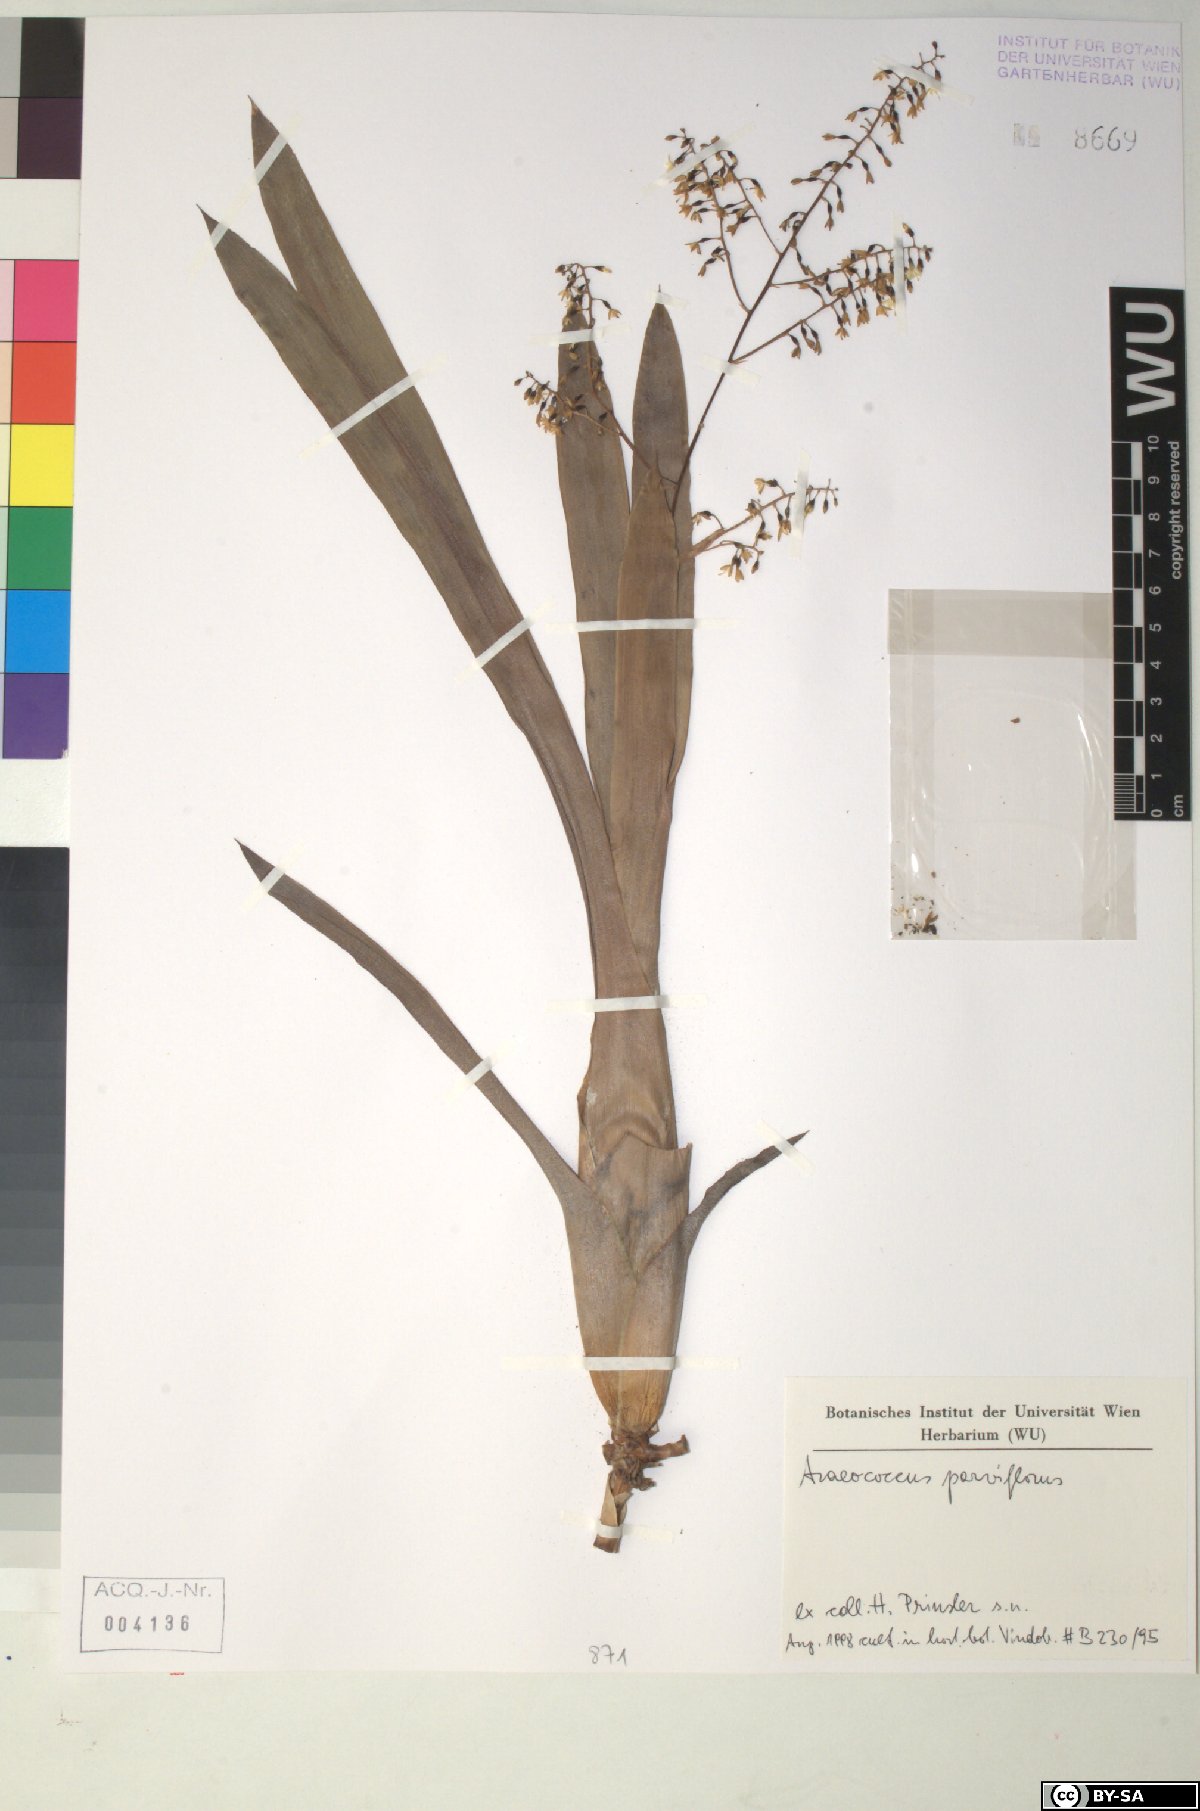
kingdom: Plantae
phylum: Tracheophyta
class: Liliopsida
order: Poales
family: Bromeliaceae
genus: Pseudaraeococcus
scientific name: Pseudaraeococcus parviflorus
